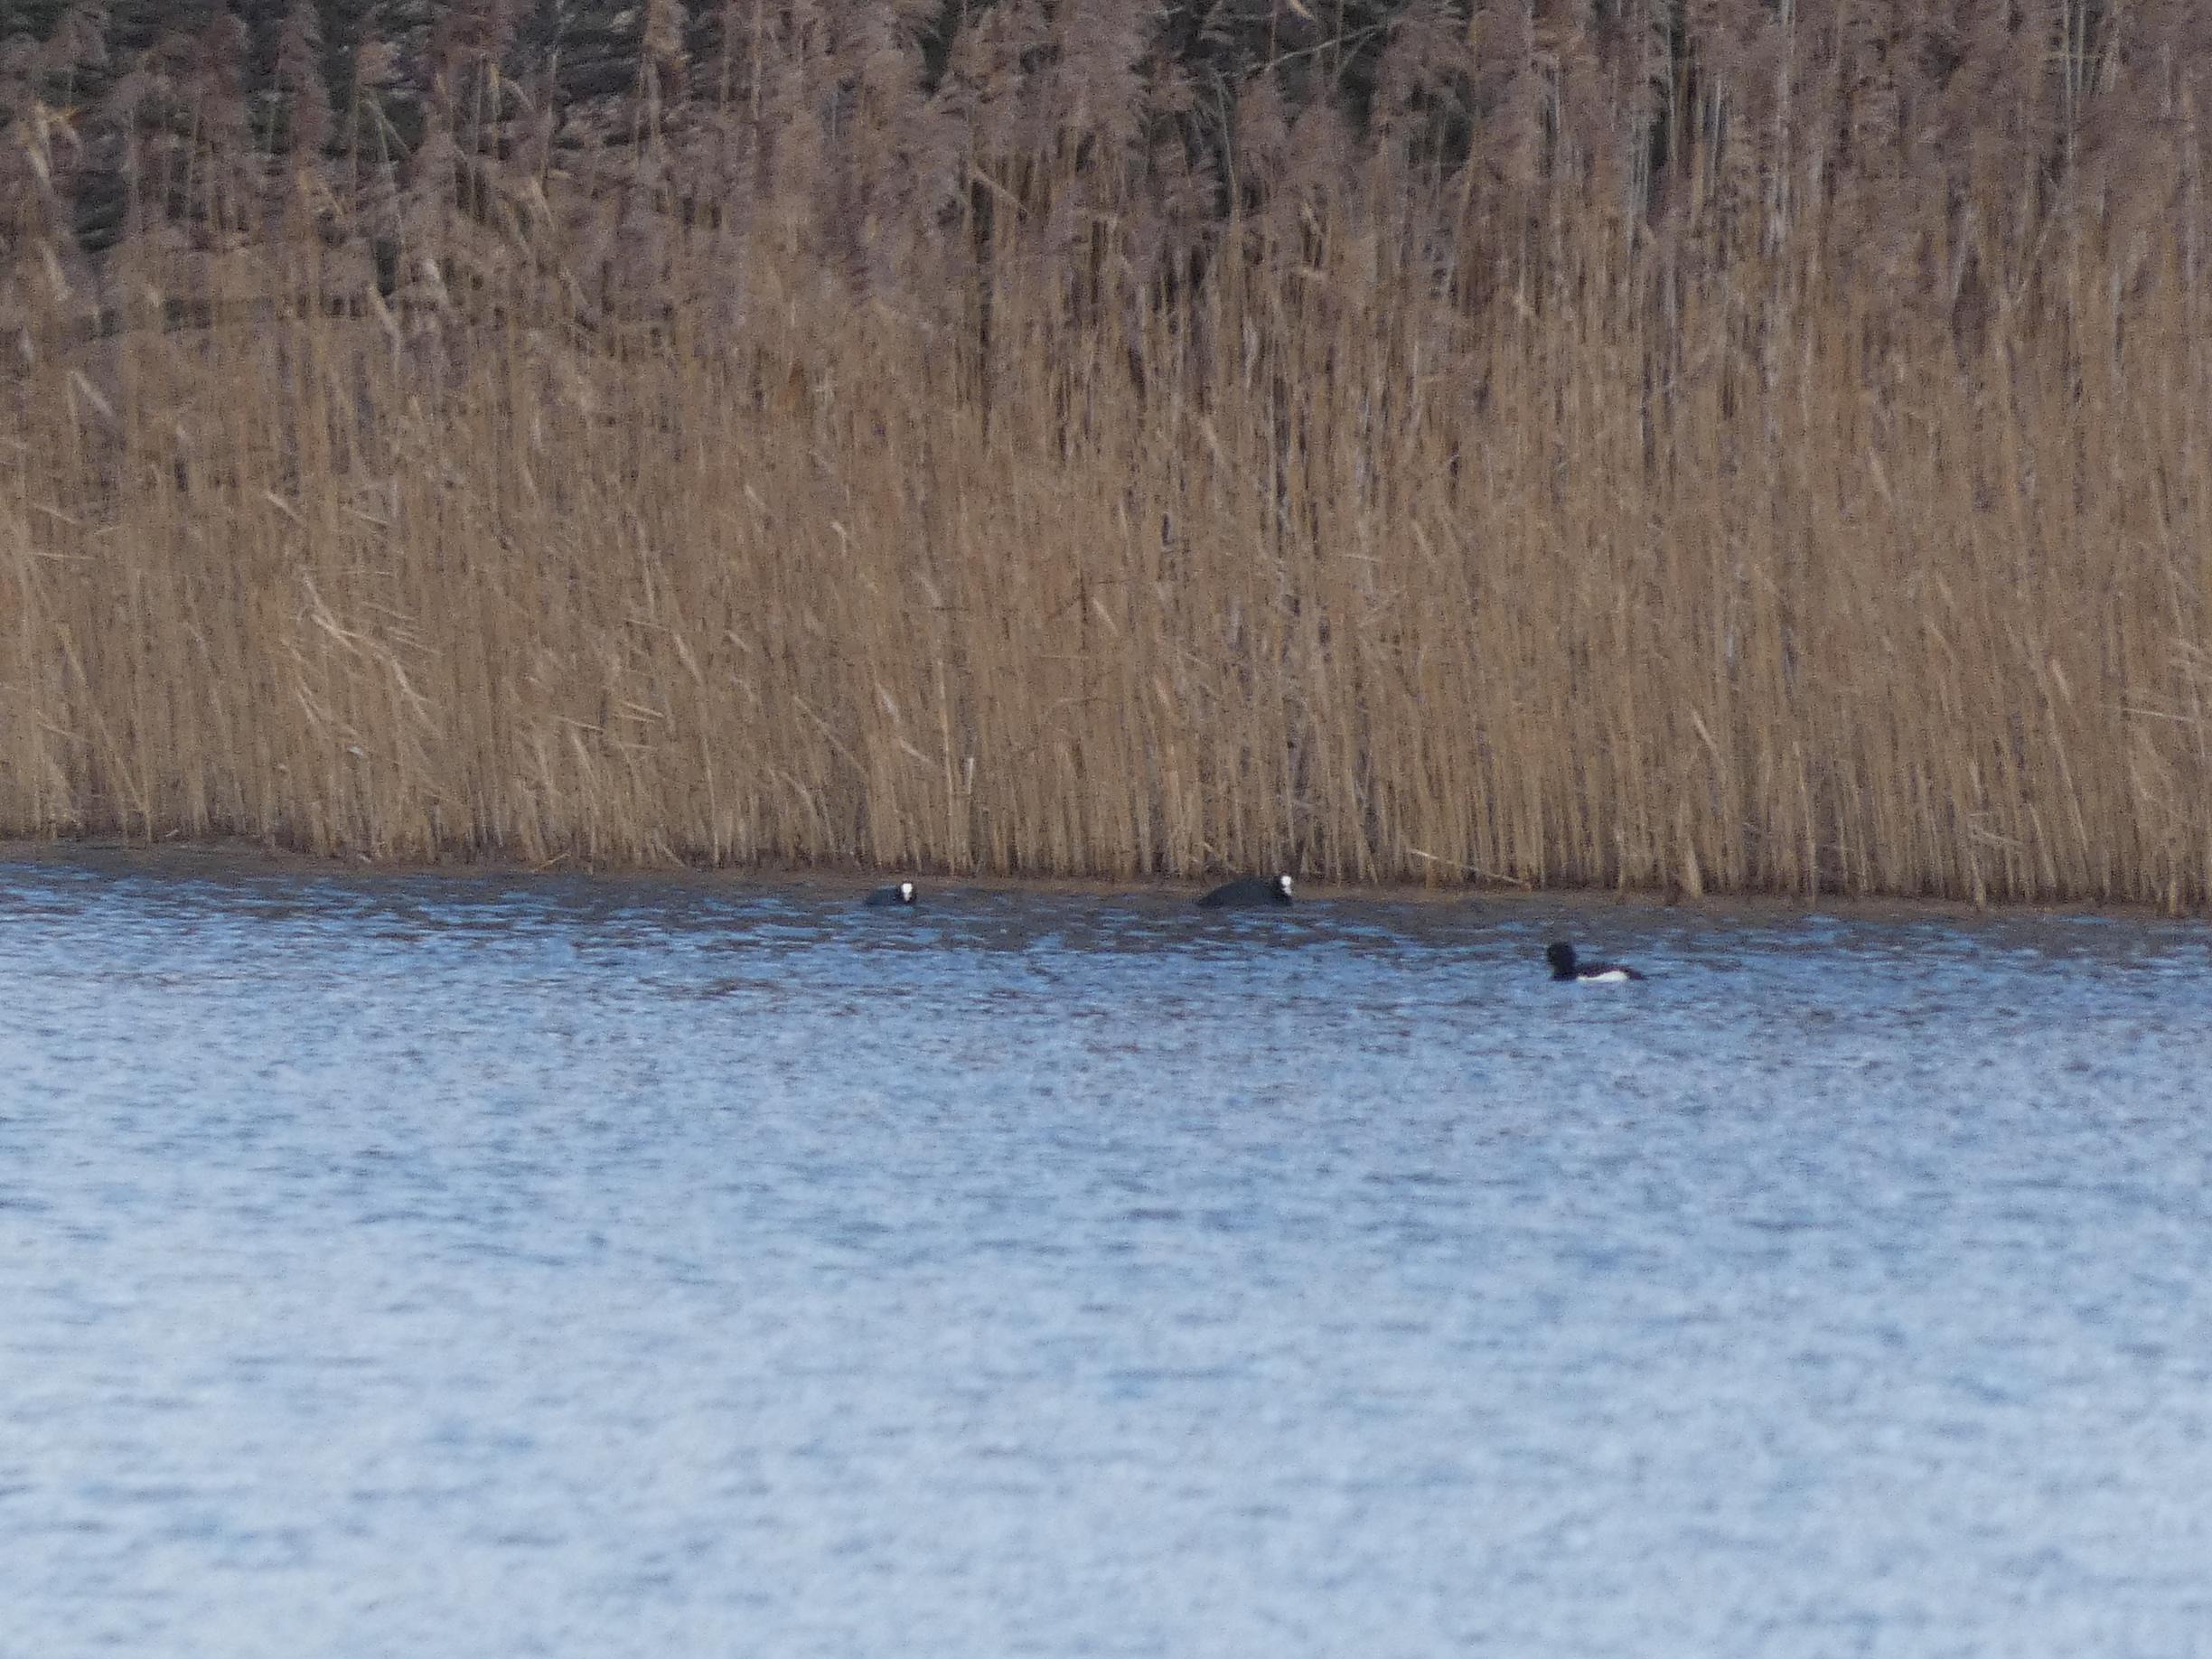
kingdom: Animalia
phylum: Chordata
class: Aves
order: Gruiformes
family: Rallidae
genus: Fulica
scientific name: Fulica atra
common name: Blishøne
